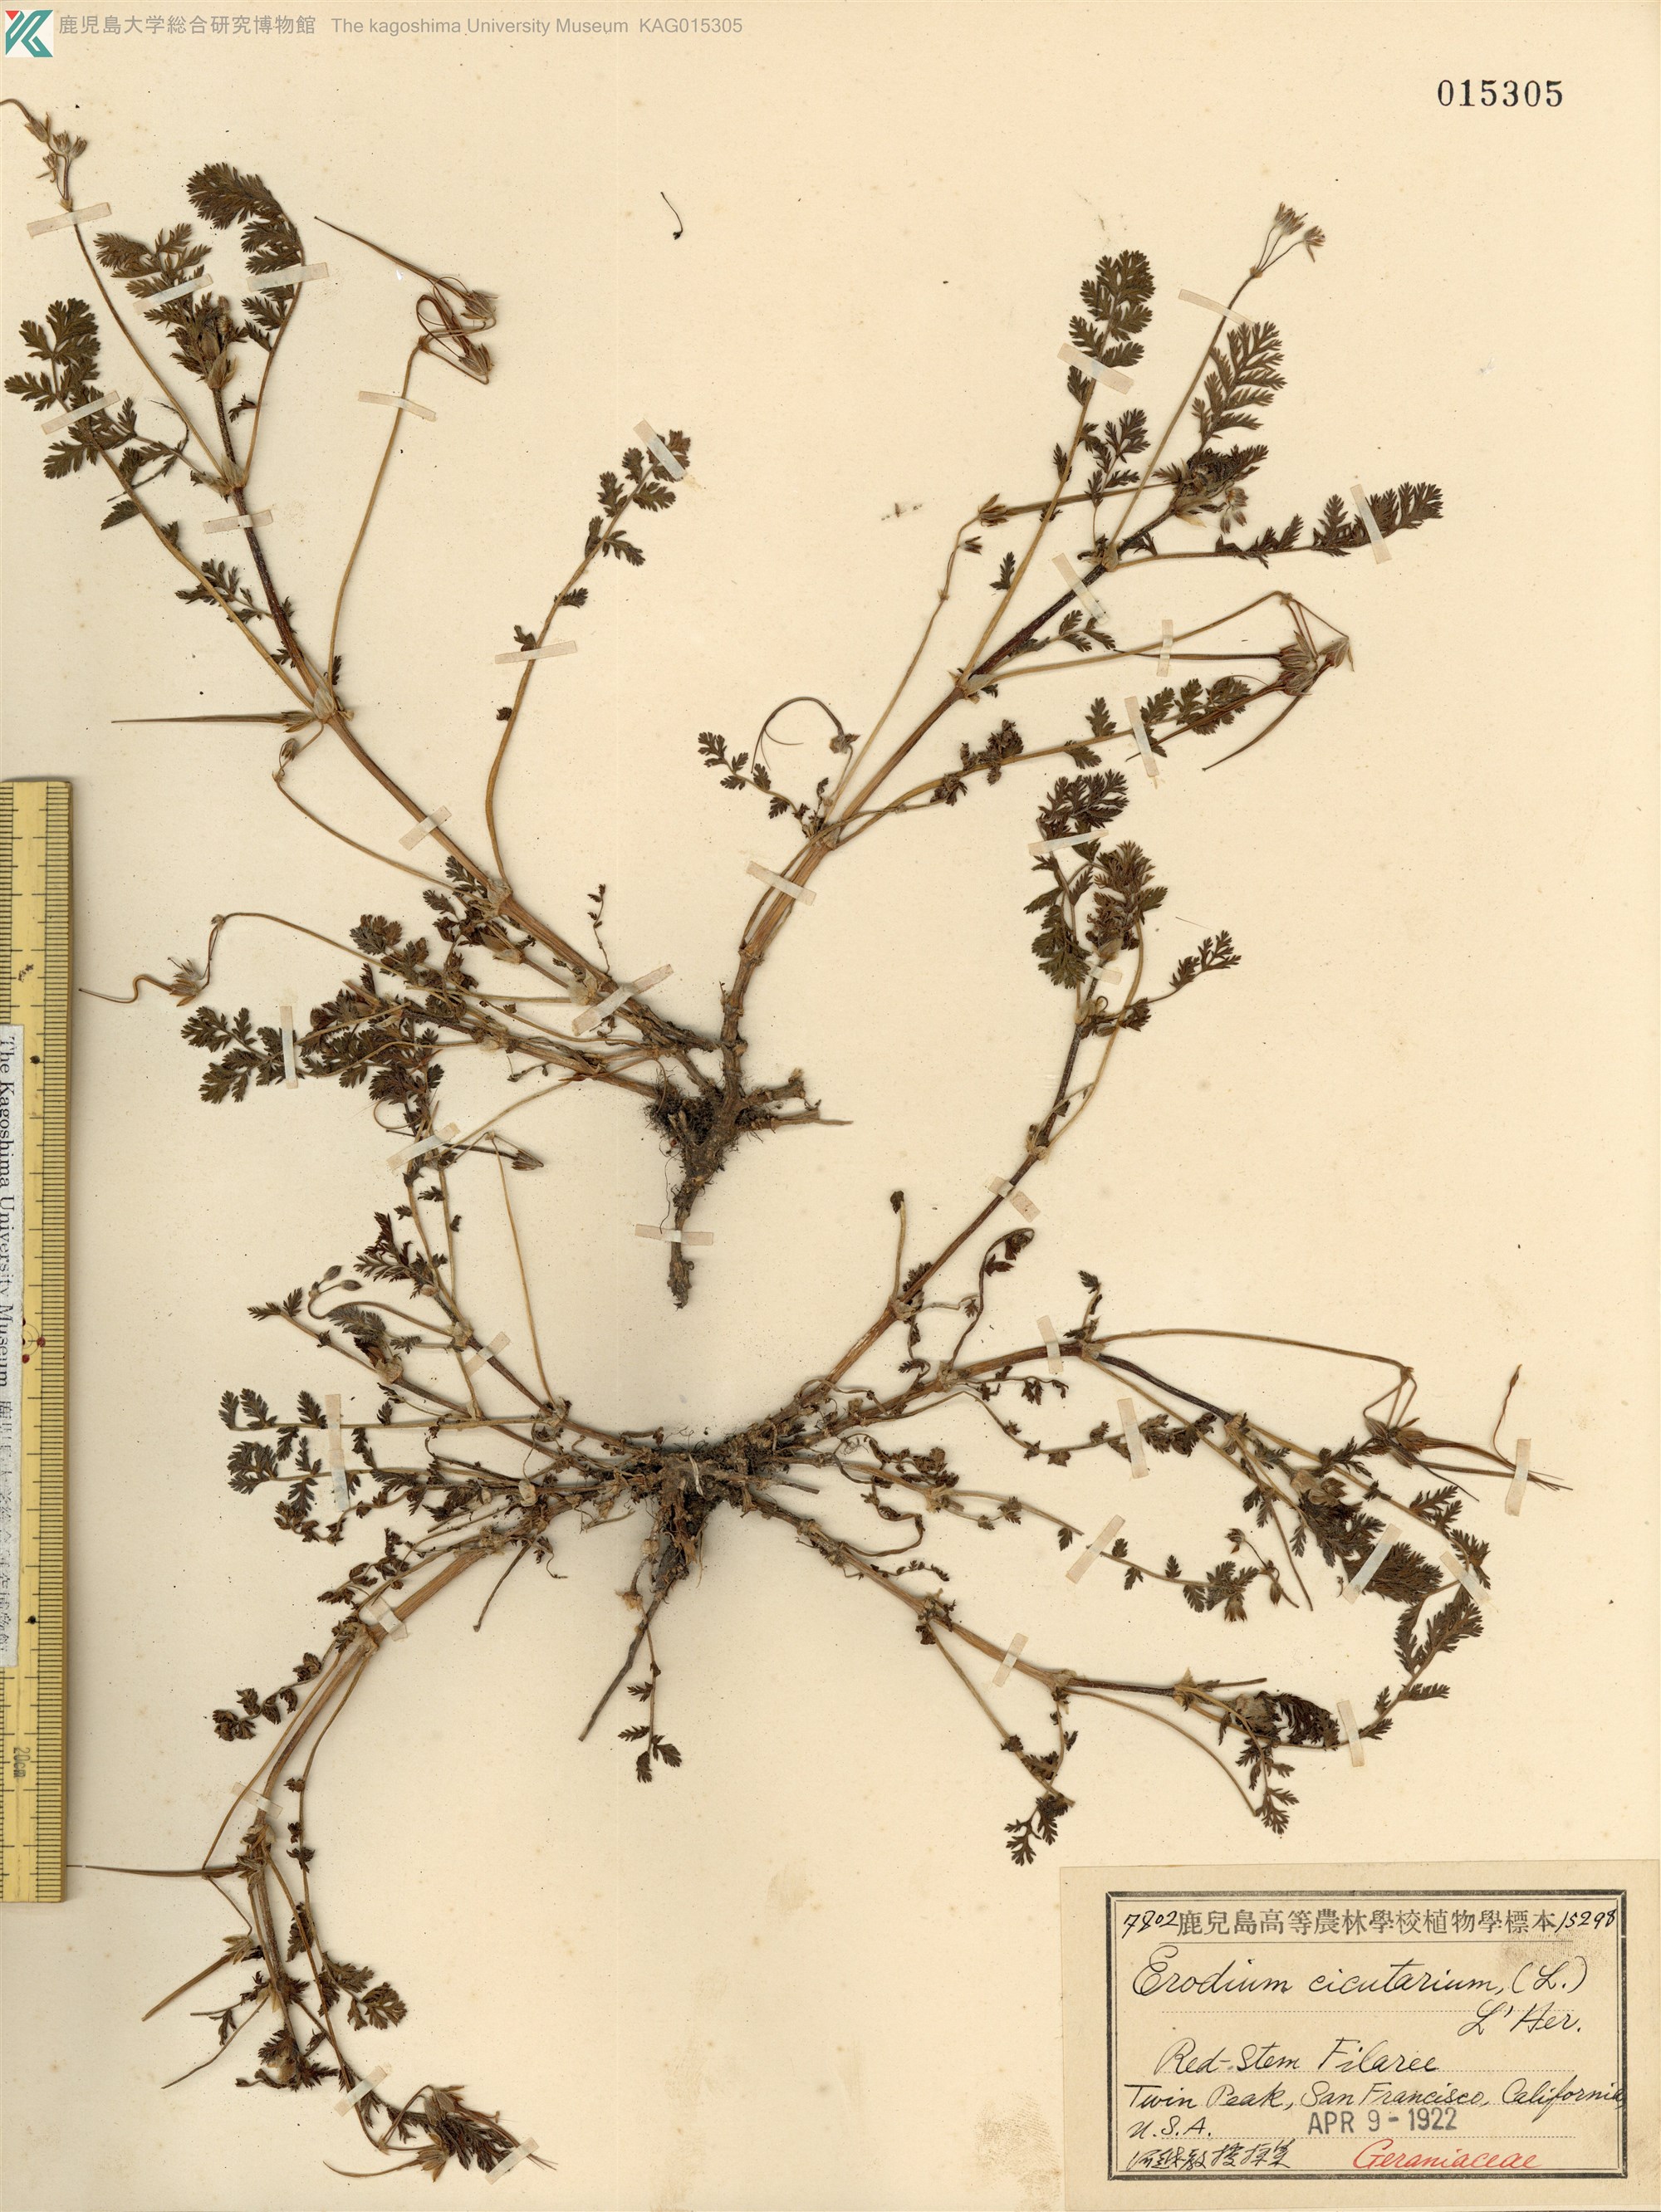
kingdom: Plantae
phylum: Tracheophyta
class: Magnoliopsida
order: Geraniales
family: Geraniaceae
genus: Erodium
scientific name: Erodium cicutarium
